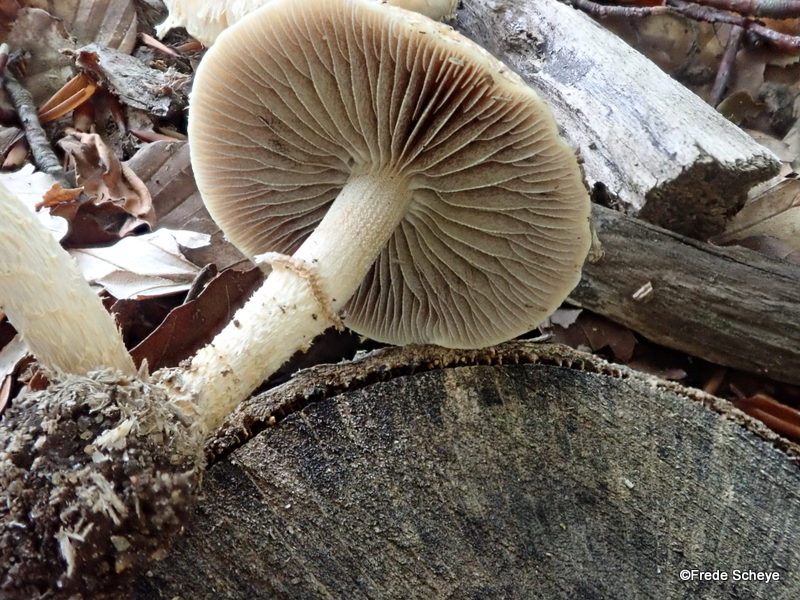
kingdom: Fungi
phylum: Basidiomycota
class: Agaricomycetes
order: Agaricales
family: Strophariaceae
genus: Leratiomyces
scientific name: Leratiomyces squamosus
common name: skællet bredblad
